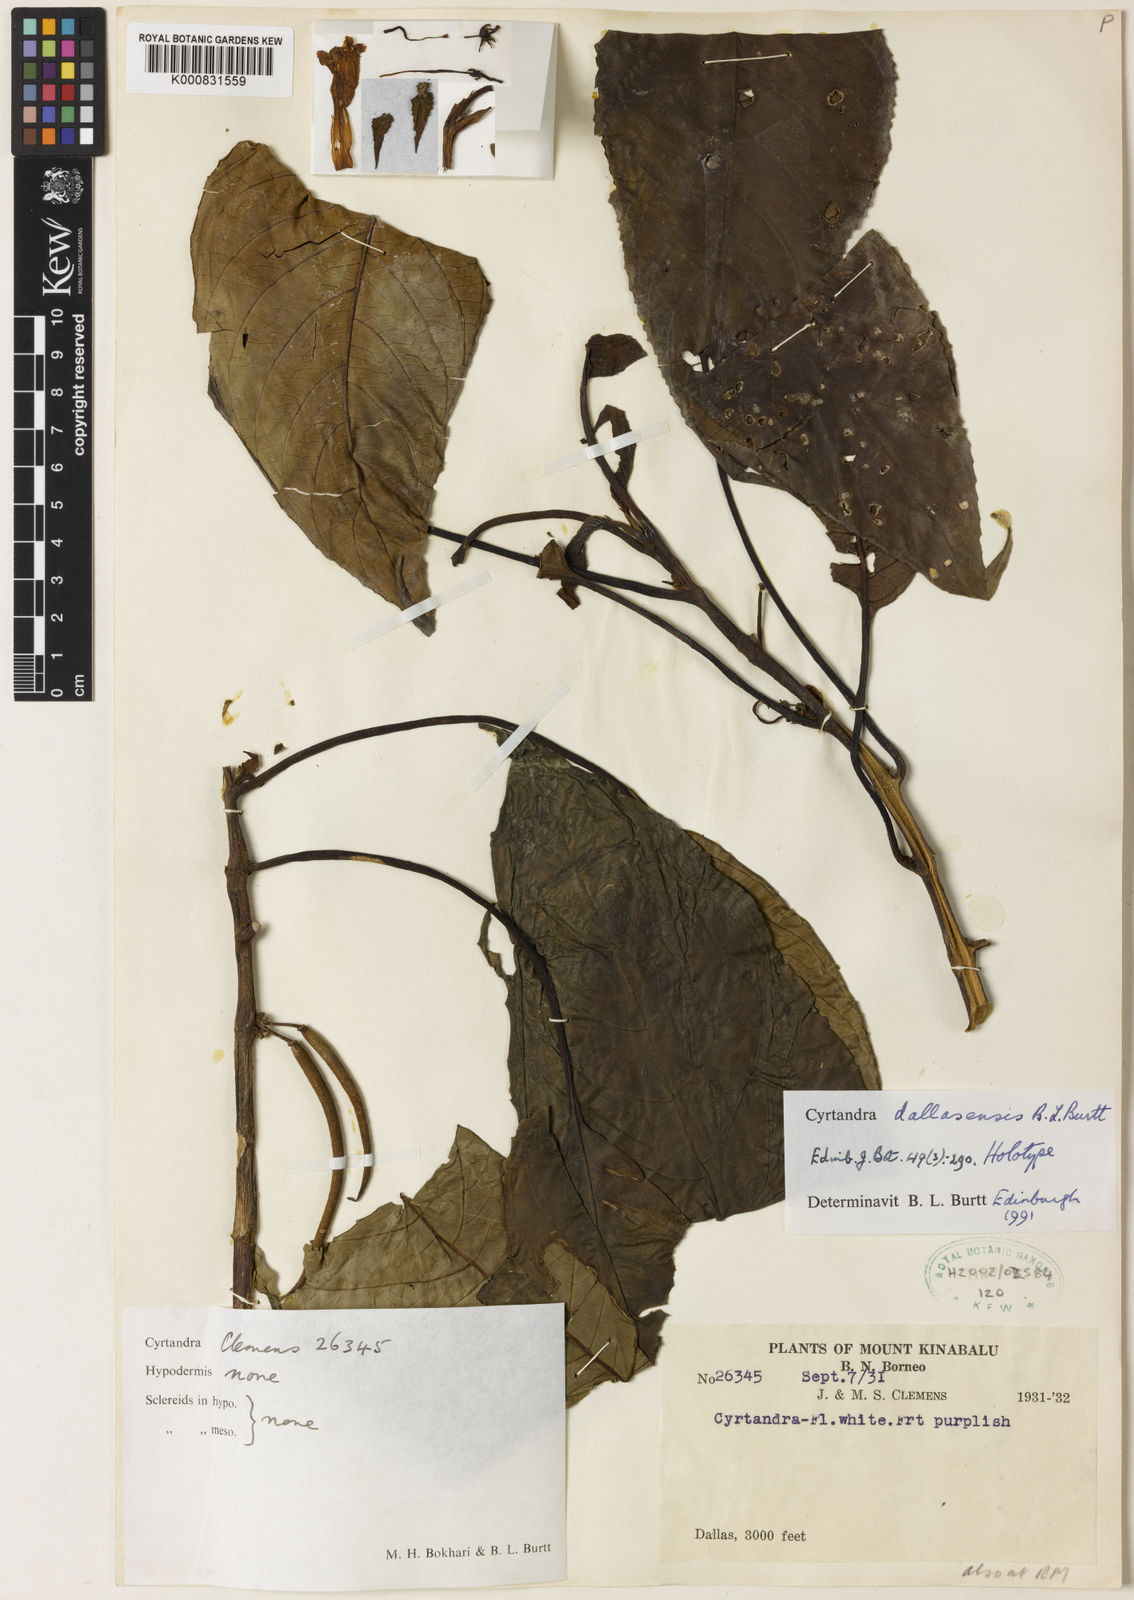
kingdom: Plantae
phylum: Tracheophyta
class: Magnoliopsida
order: Lamiales
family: Gesneriaceae
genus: Cyrtandra
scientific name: Cyrtandra dallasensis
